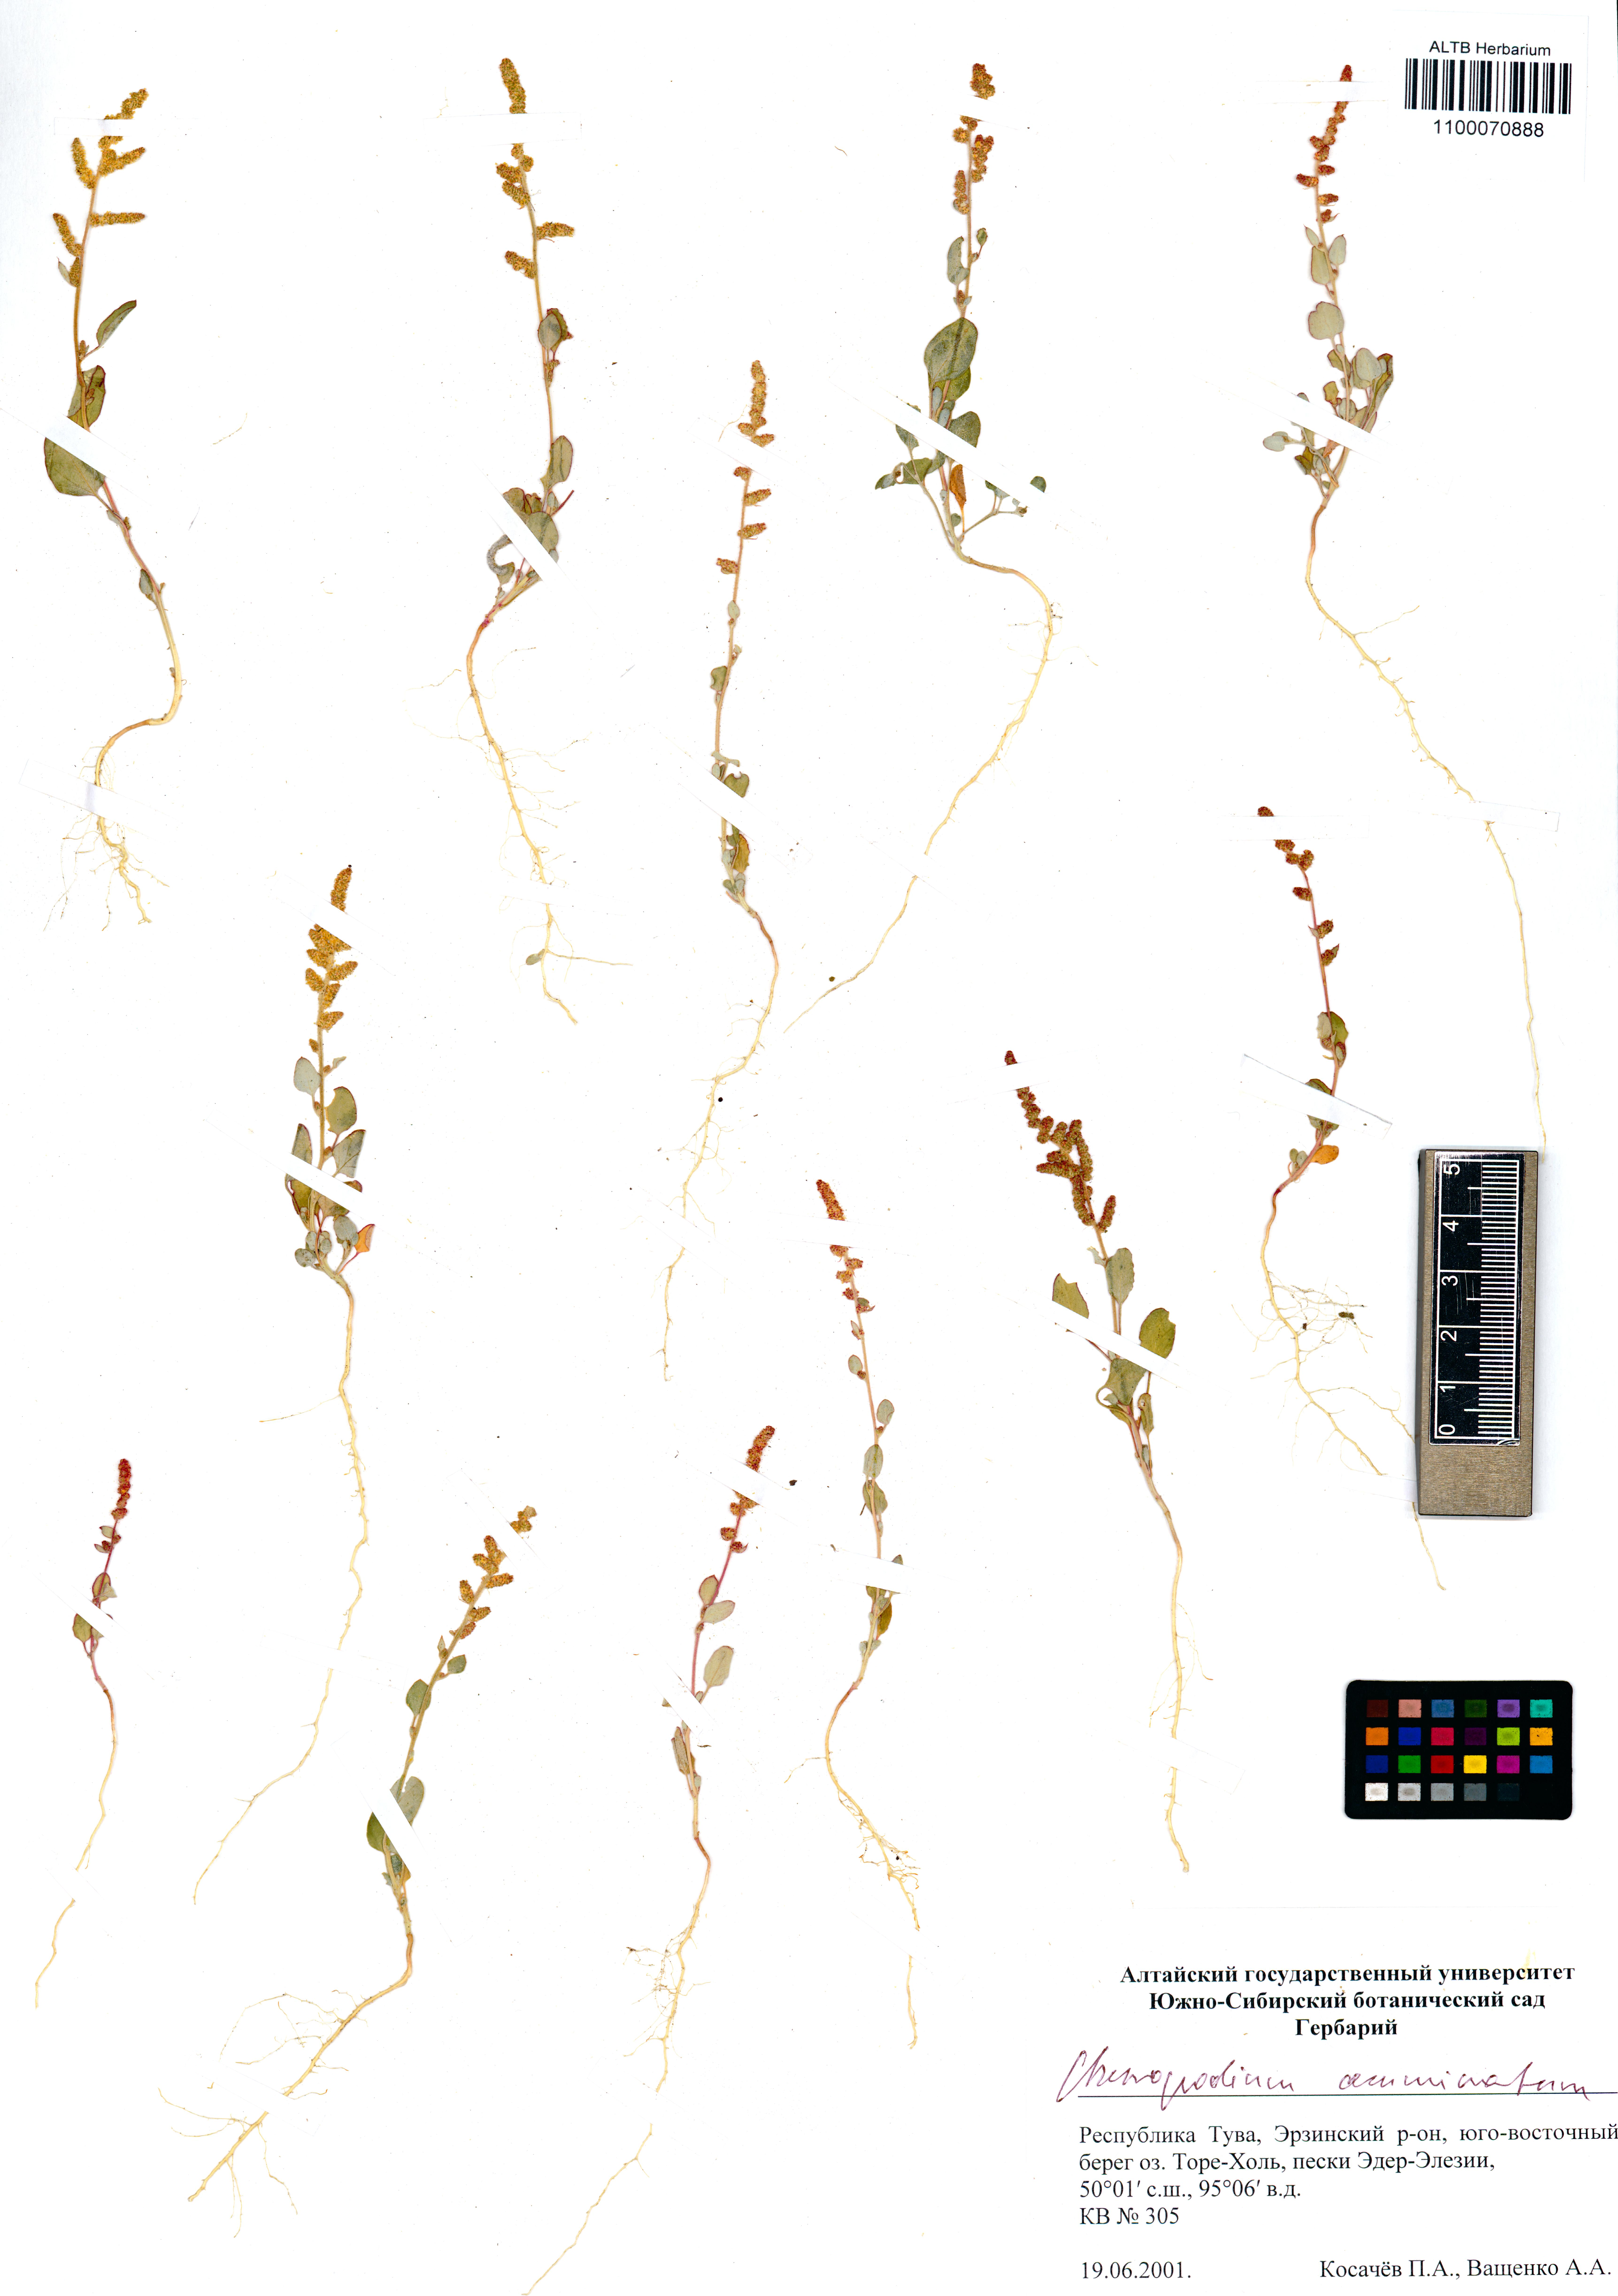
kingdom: Plantae
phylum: Tracheophyta
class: Magnoliopsida
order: Caryophyllales
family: Amaranthaceae
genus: Oxybasis
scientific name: Oxybasis rubra
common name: Red goosefoot
